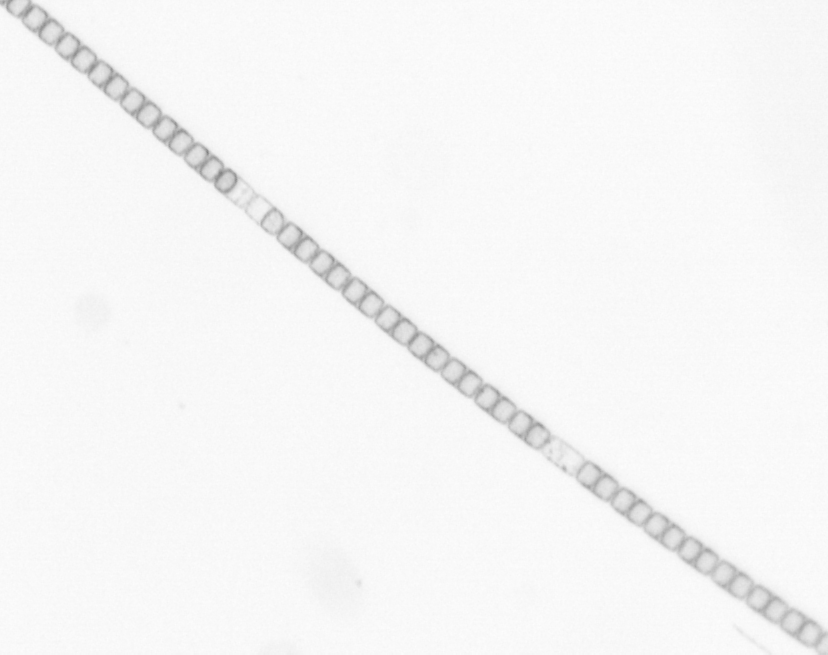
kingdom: Chromista
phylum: Ochrophyta
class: Bacillariophyceae
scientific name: Bacillariophyceae
